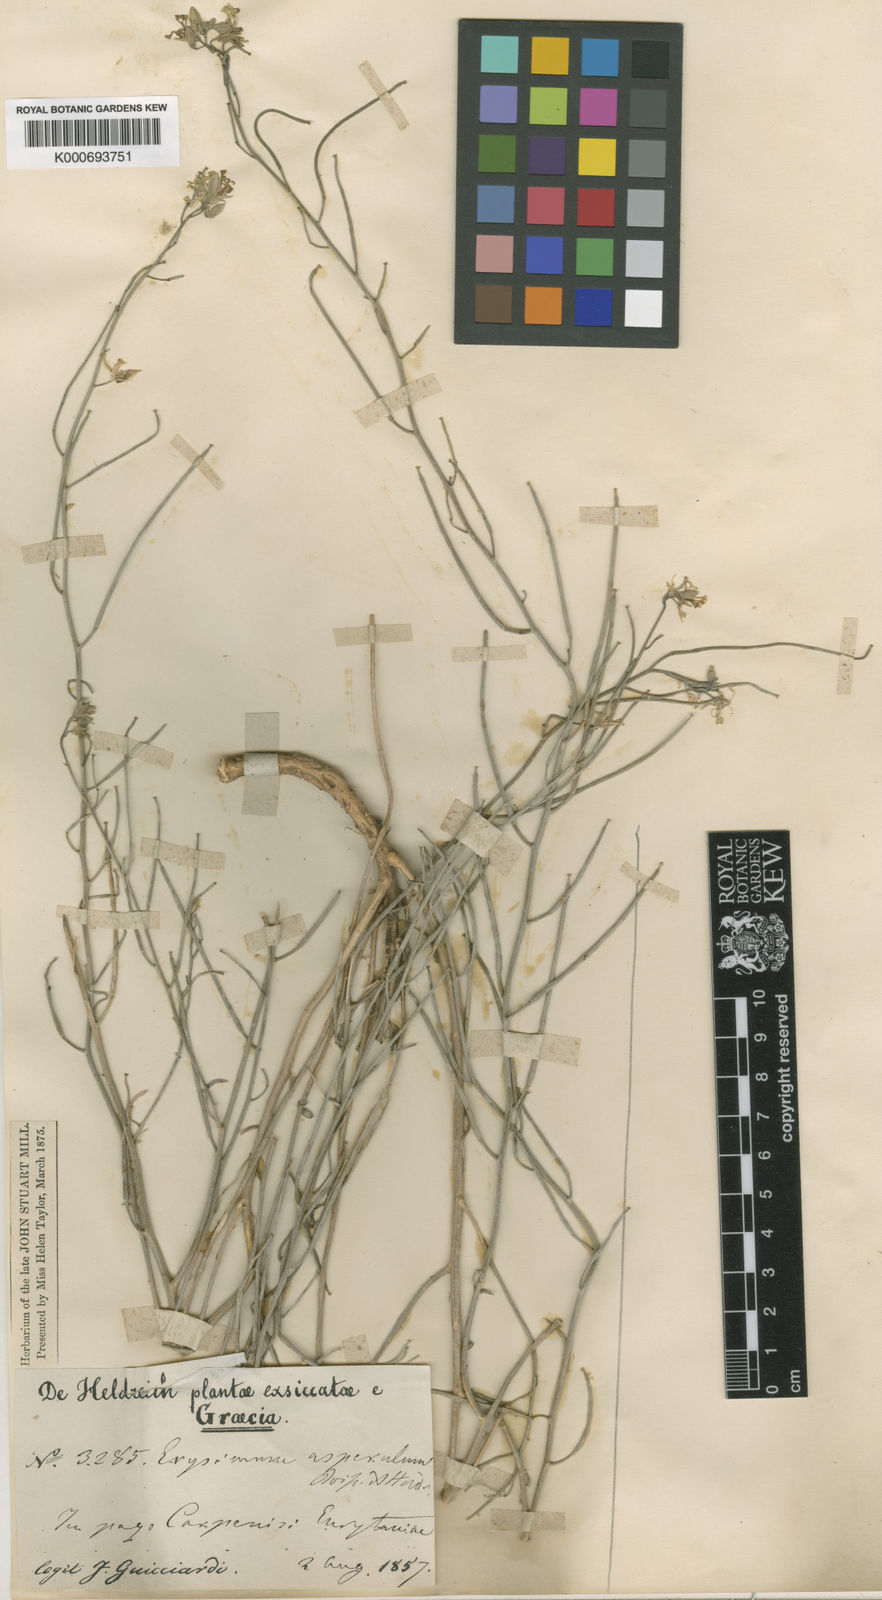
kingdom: Plantae
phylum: Tracheophyta
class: Magnoliopsida
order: Brassicales
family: Brassicaceae
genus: Erysimum
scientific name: Erysimum asperulum
